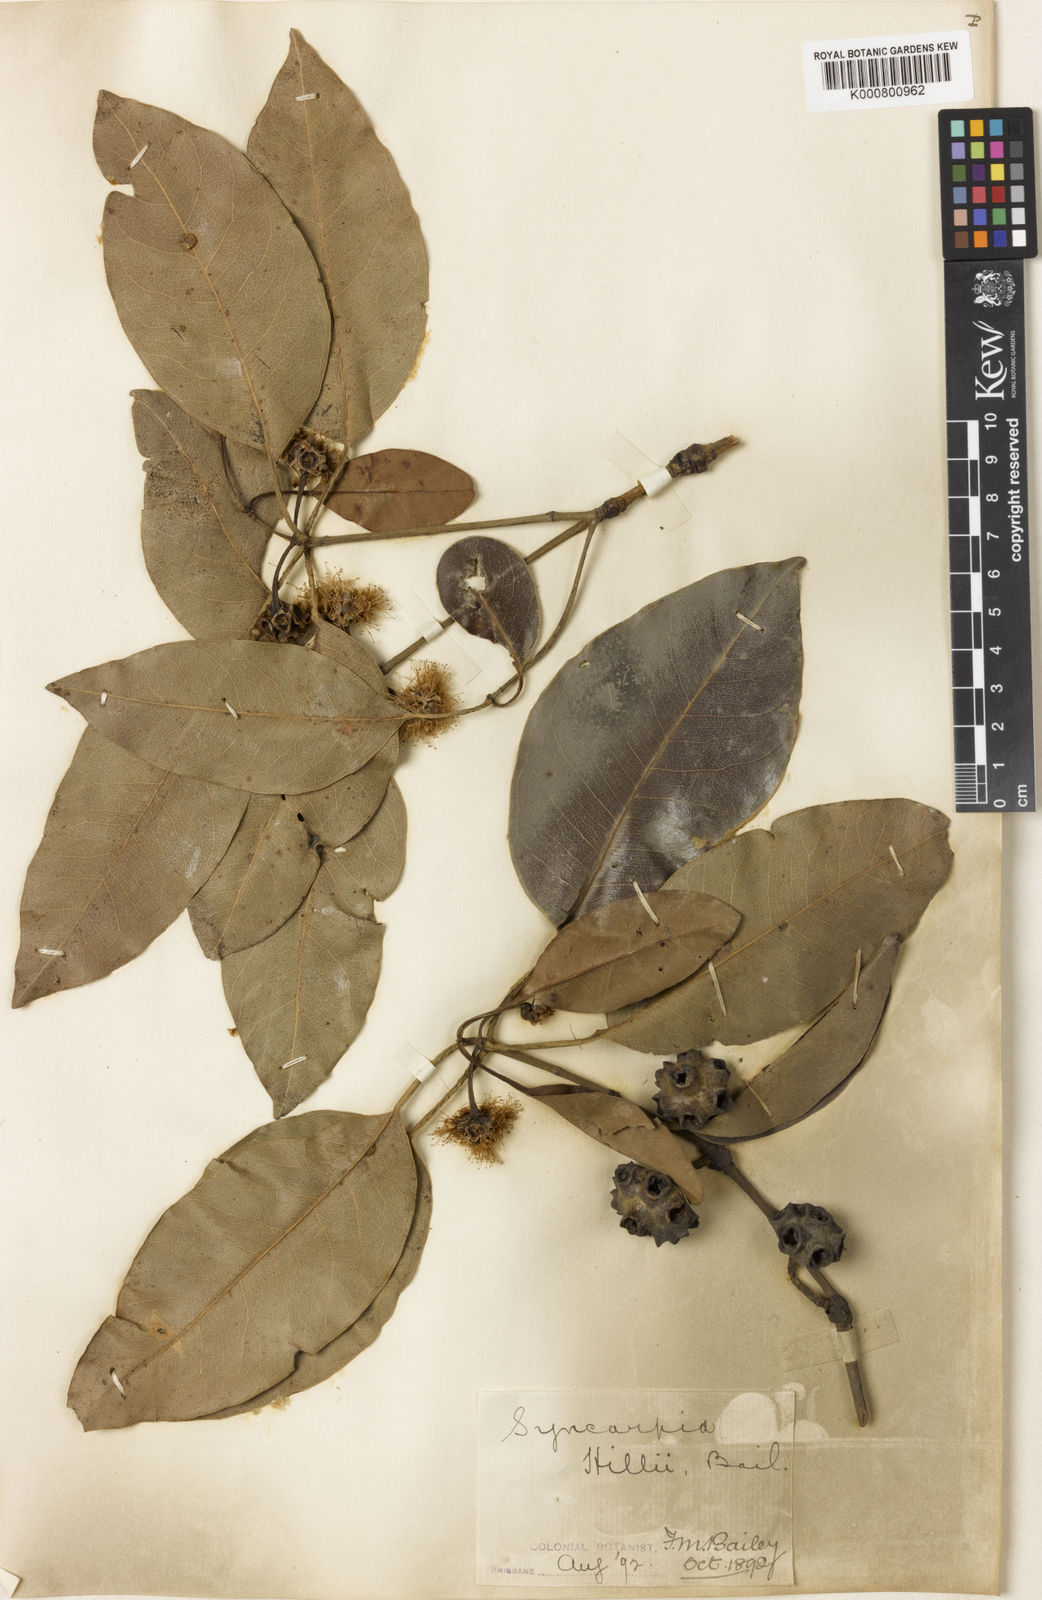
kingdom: Plantae
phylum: Tracheophyta
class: Magnoliopsida
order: Myrtales
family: Myrtaceae
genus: Syncarpia
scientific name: Syncarpia hillii
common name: Fraser island turpentine
